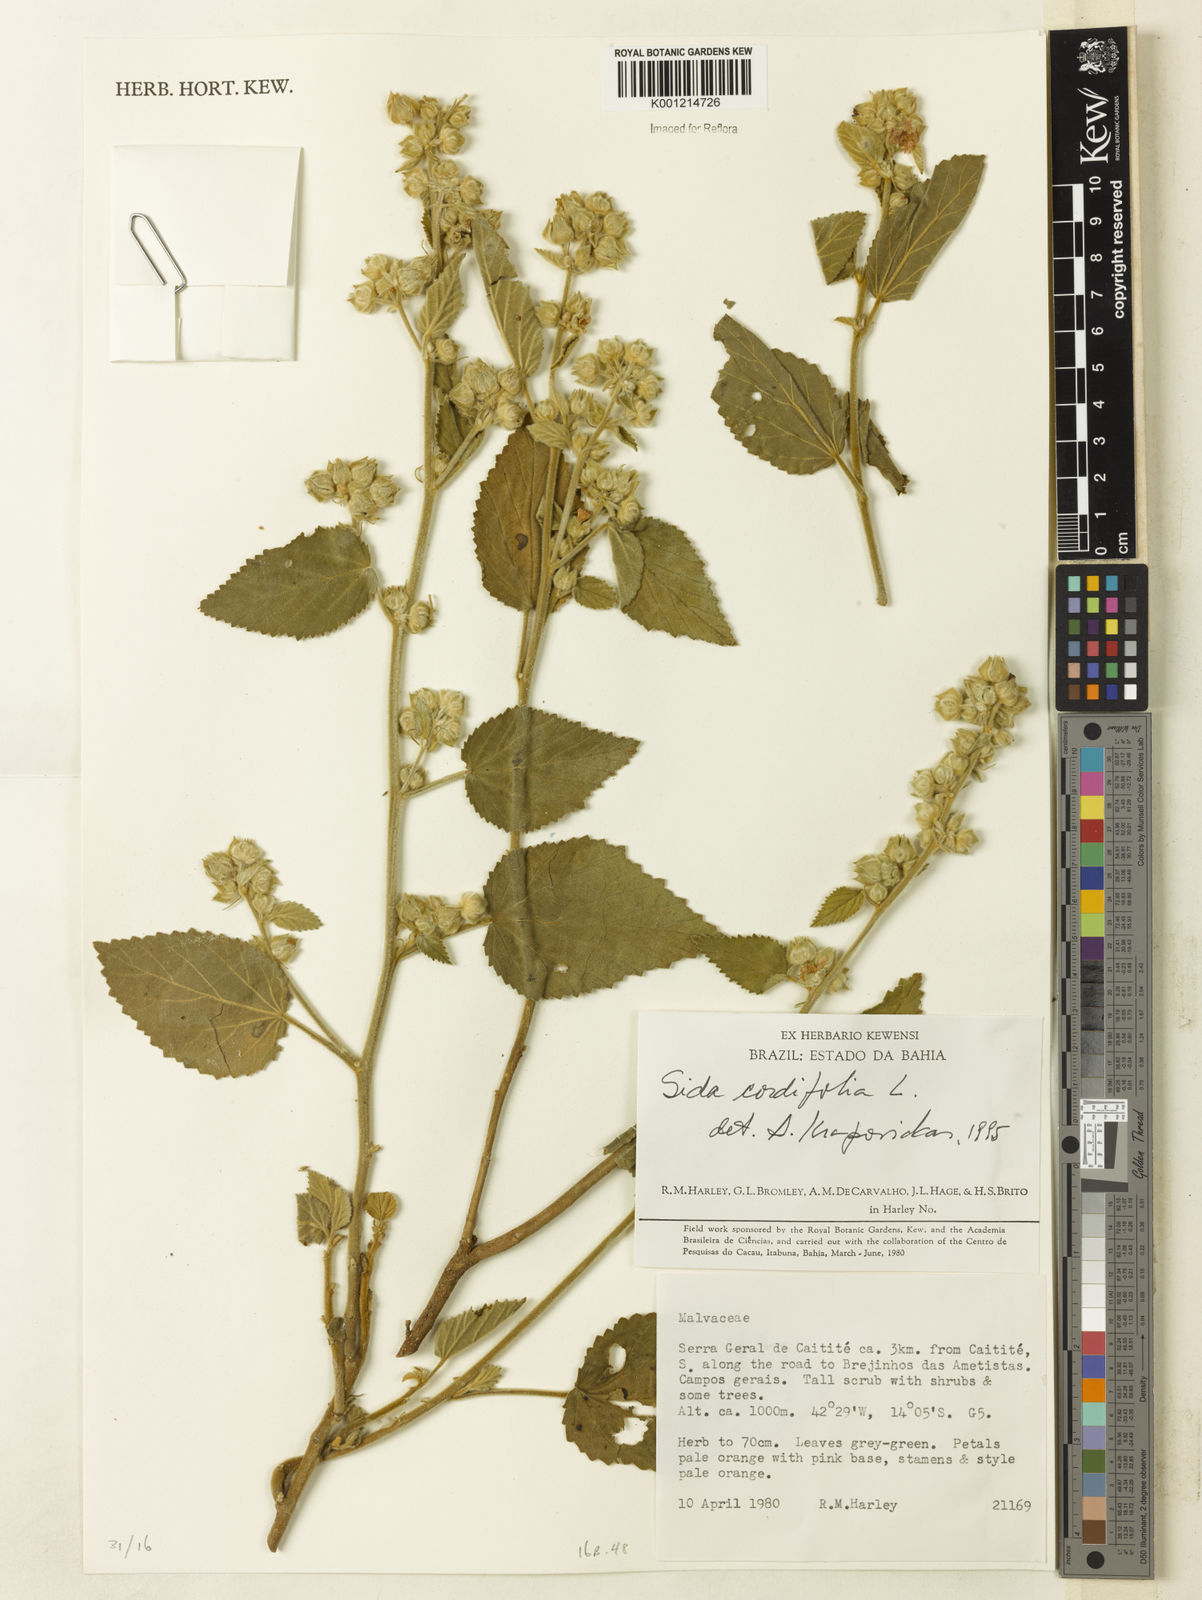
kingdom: Plantae
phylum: Tracheophyta
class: Magnoliopsida
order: Malvales
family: Malvaceae
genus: Sida
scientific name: Sida cordifolia
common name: Ilima
